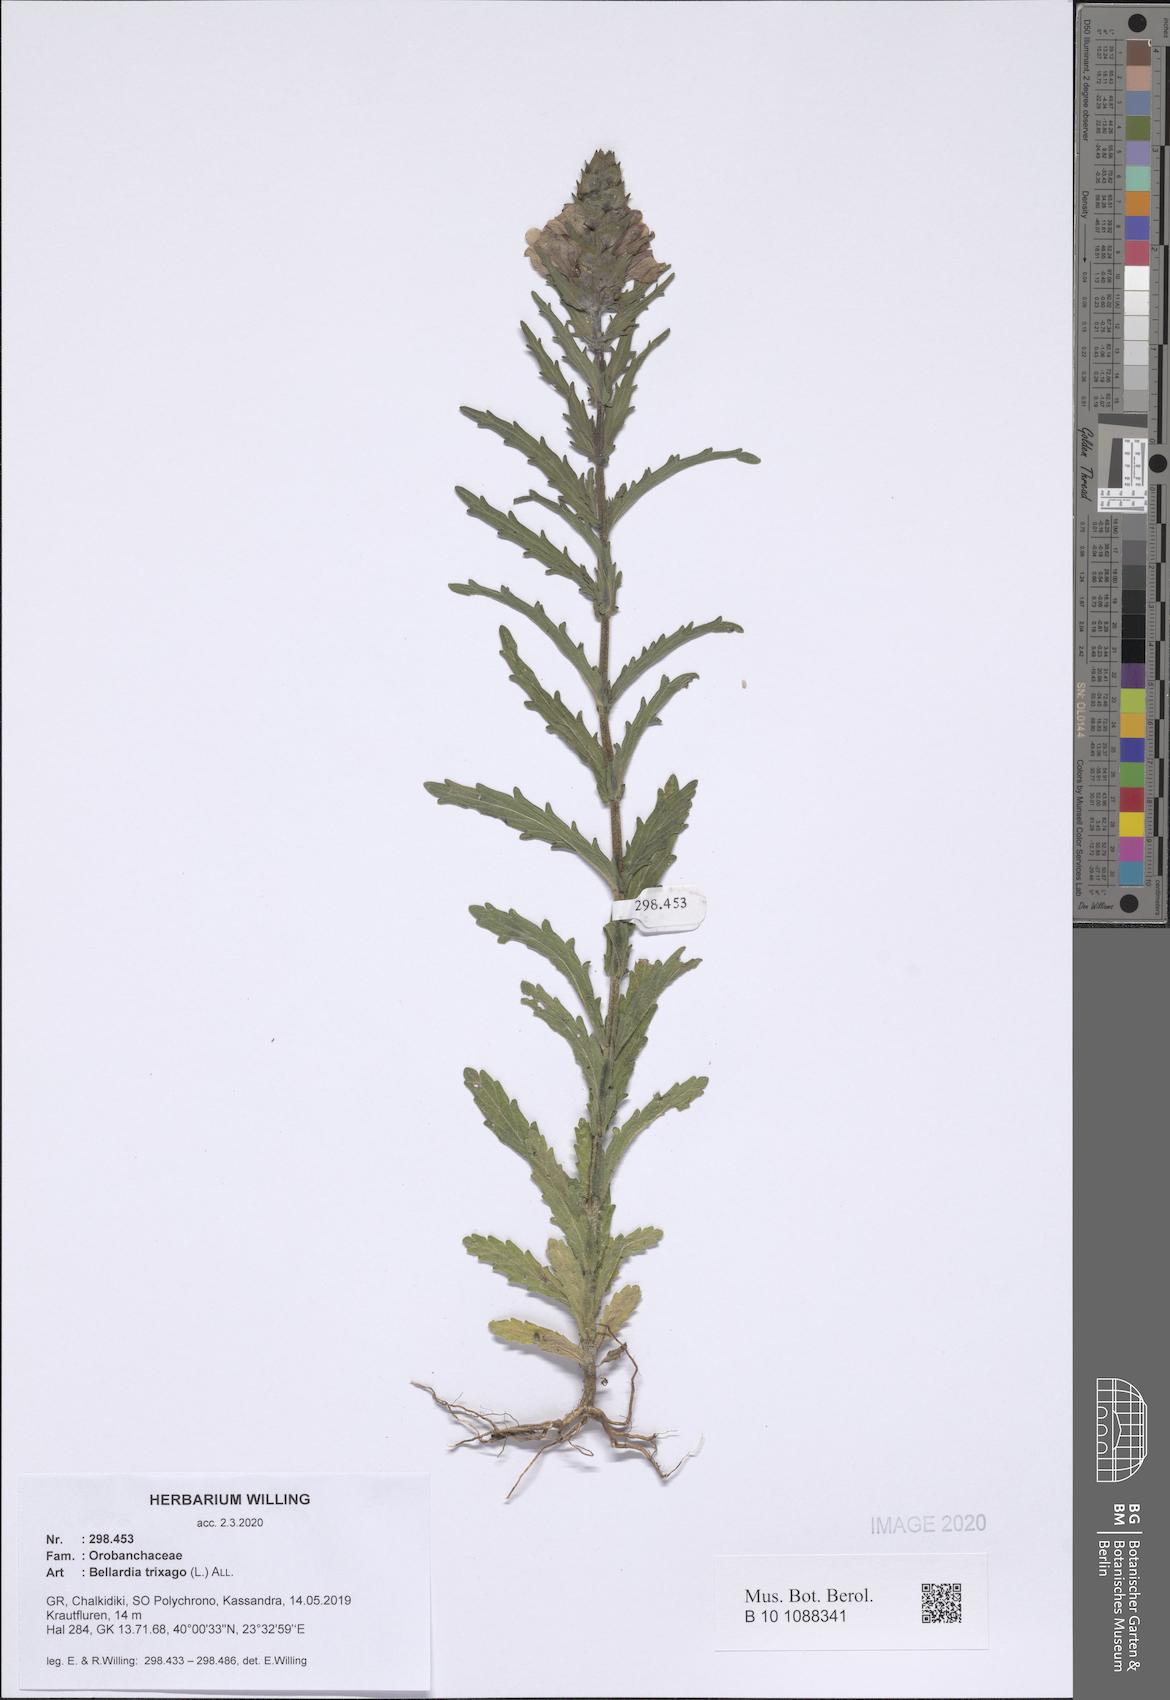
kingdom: Plantae
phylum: Tracheophyta
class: Magnoliopsida
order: Lamiales
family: Orobanchaceae
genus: Bellardia
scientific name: Bellardia trixago
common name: Mediterranean lineseed
